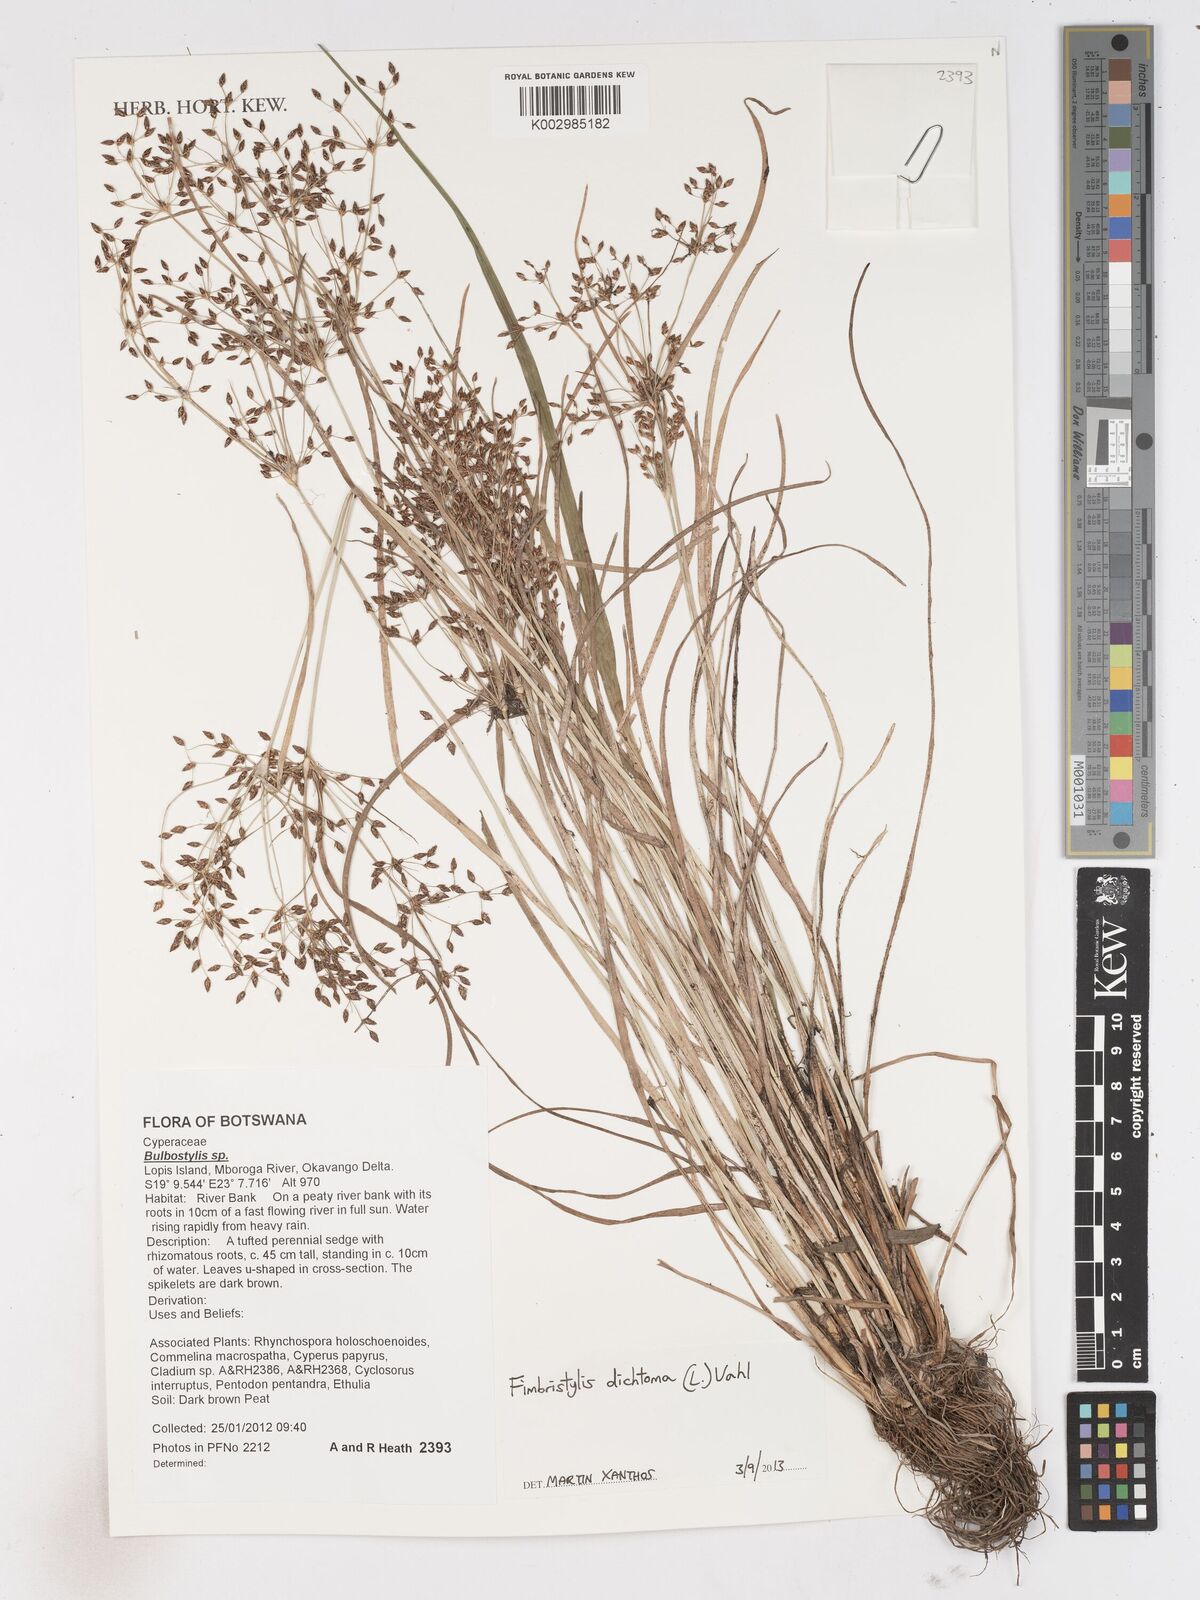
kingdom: Plantae
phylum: Tracheophyta
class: Liliopsida
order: Poales
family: Cyperaceae
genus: Fimbristylis
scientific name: Fimbristylis dichotoma
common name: Forked fimbry
